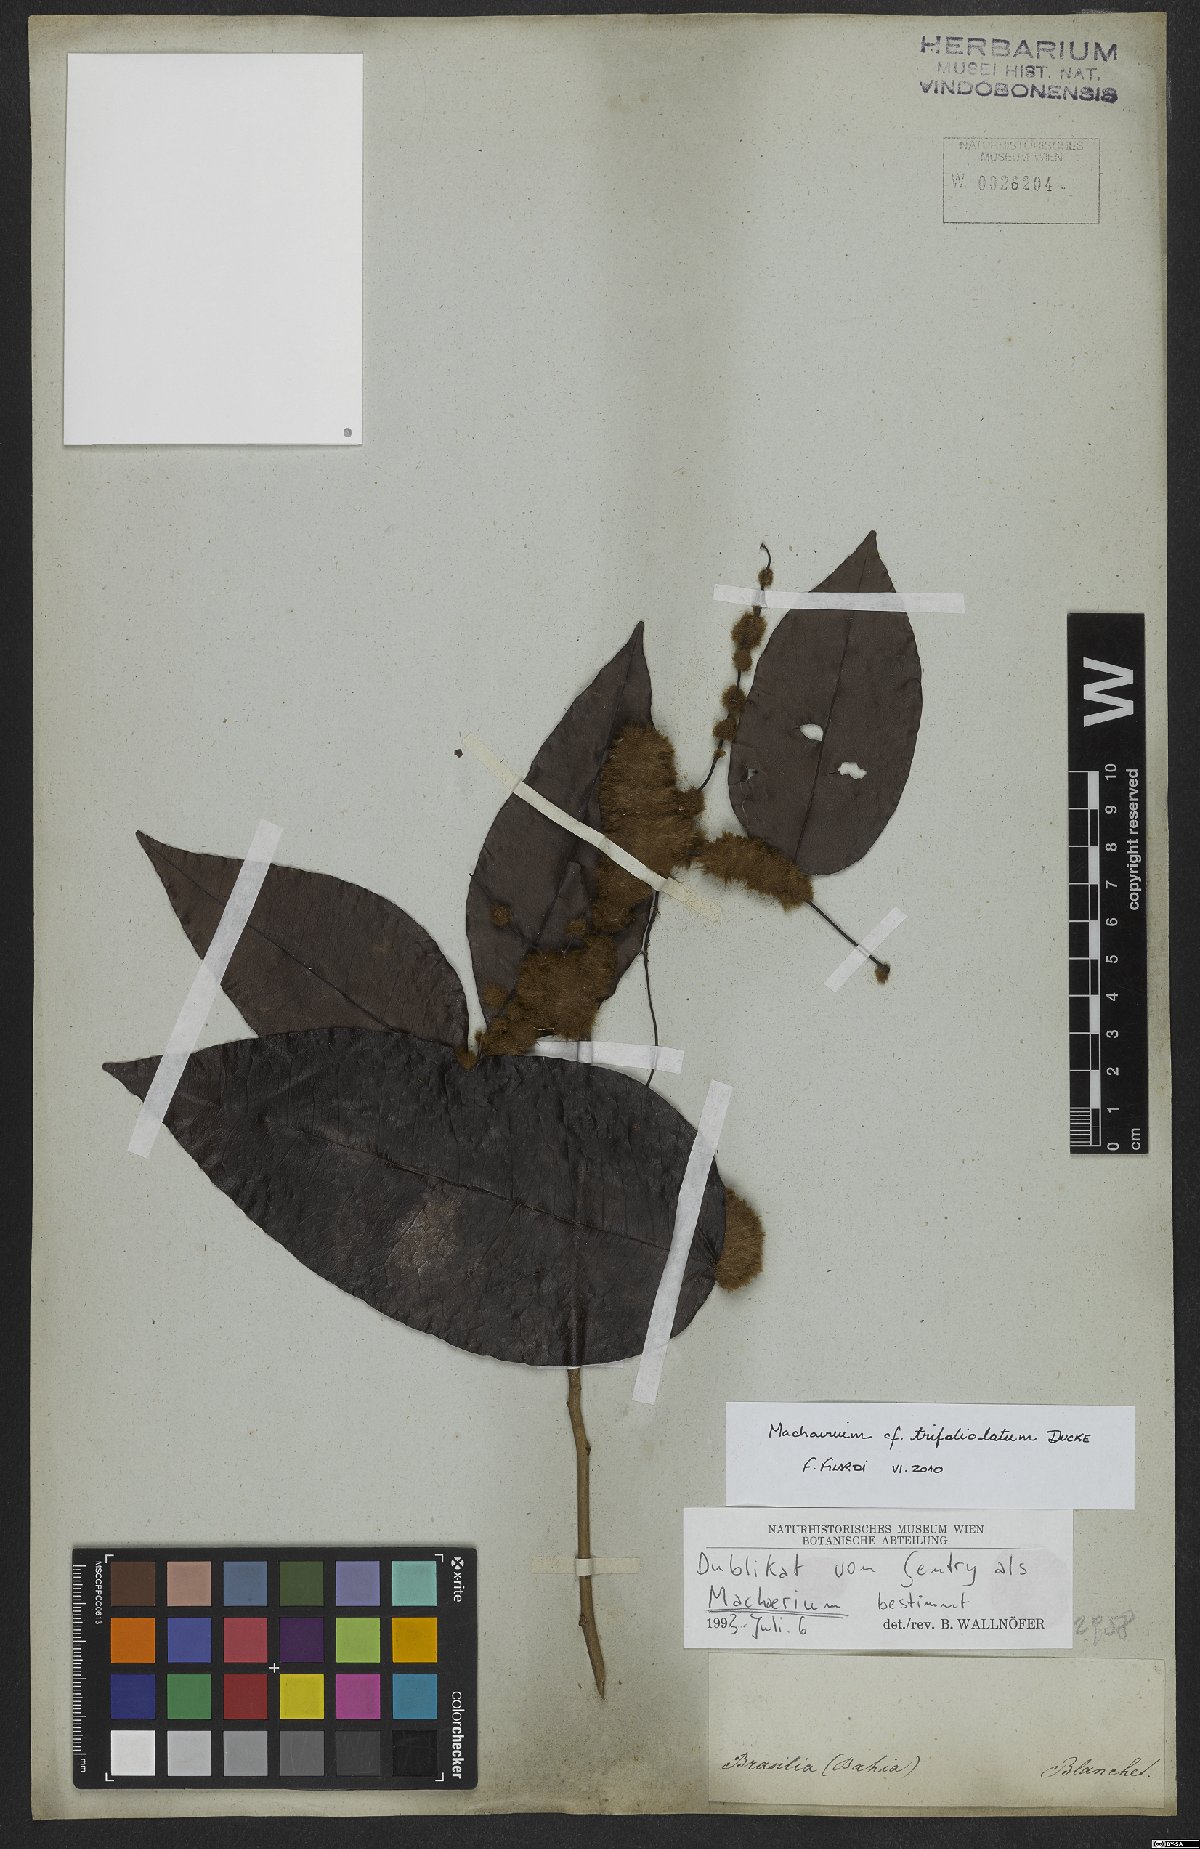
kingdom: Plantae
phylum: Tracheophyta
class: Magnoliopsida
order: Fabales
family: Fabaceae
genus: Machaerium
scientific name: Machaerium trifoliolatum
